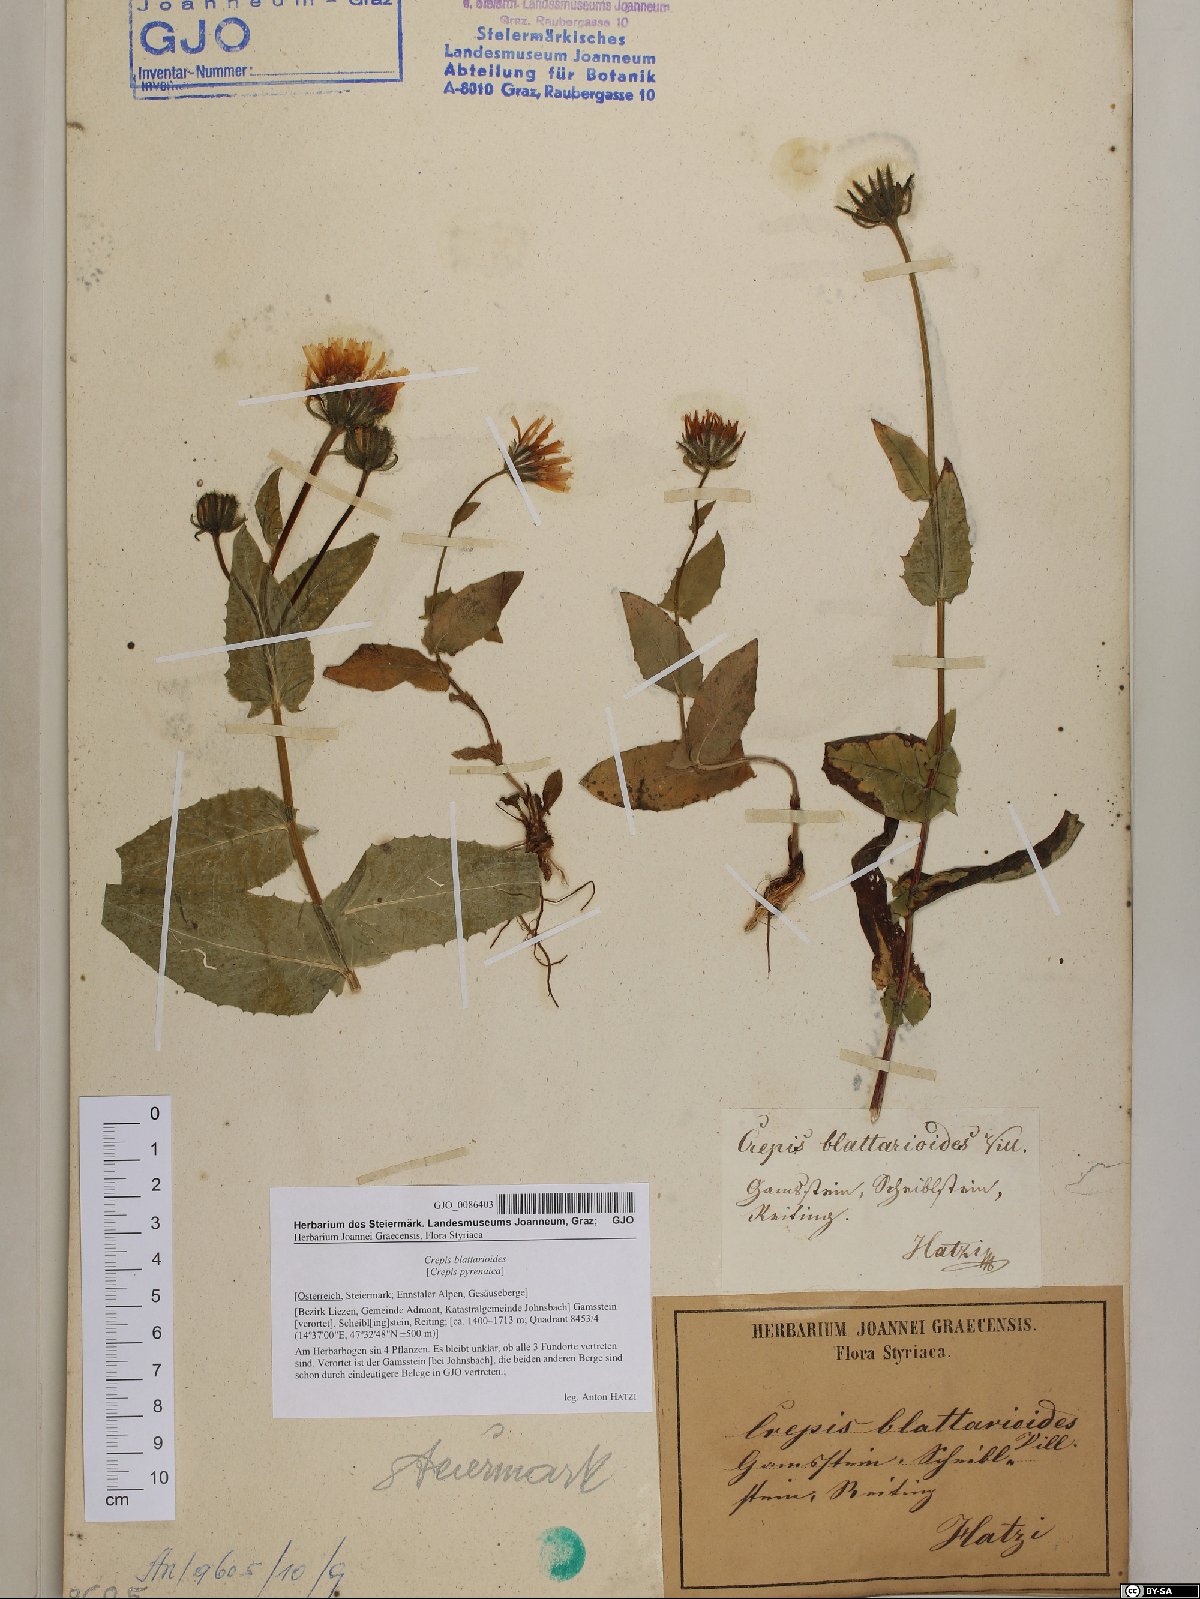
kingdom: Plantae
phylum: Tracheophyta
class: Magnoliopsida
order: Asterales
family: Asteraceae
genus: Crepis
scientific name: Crepis blattarioides
